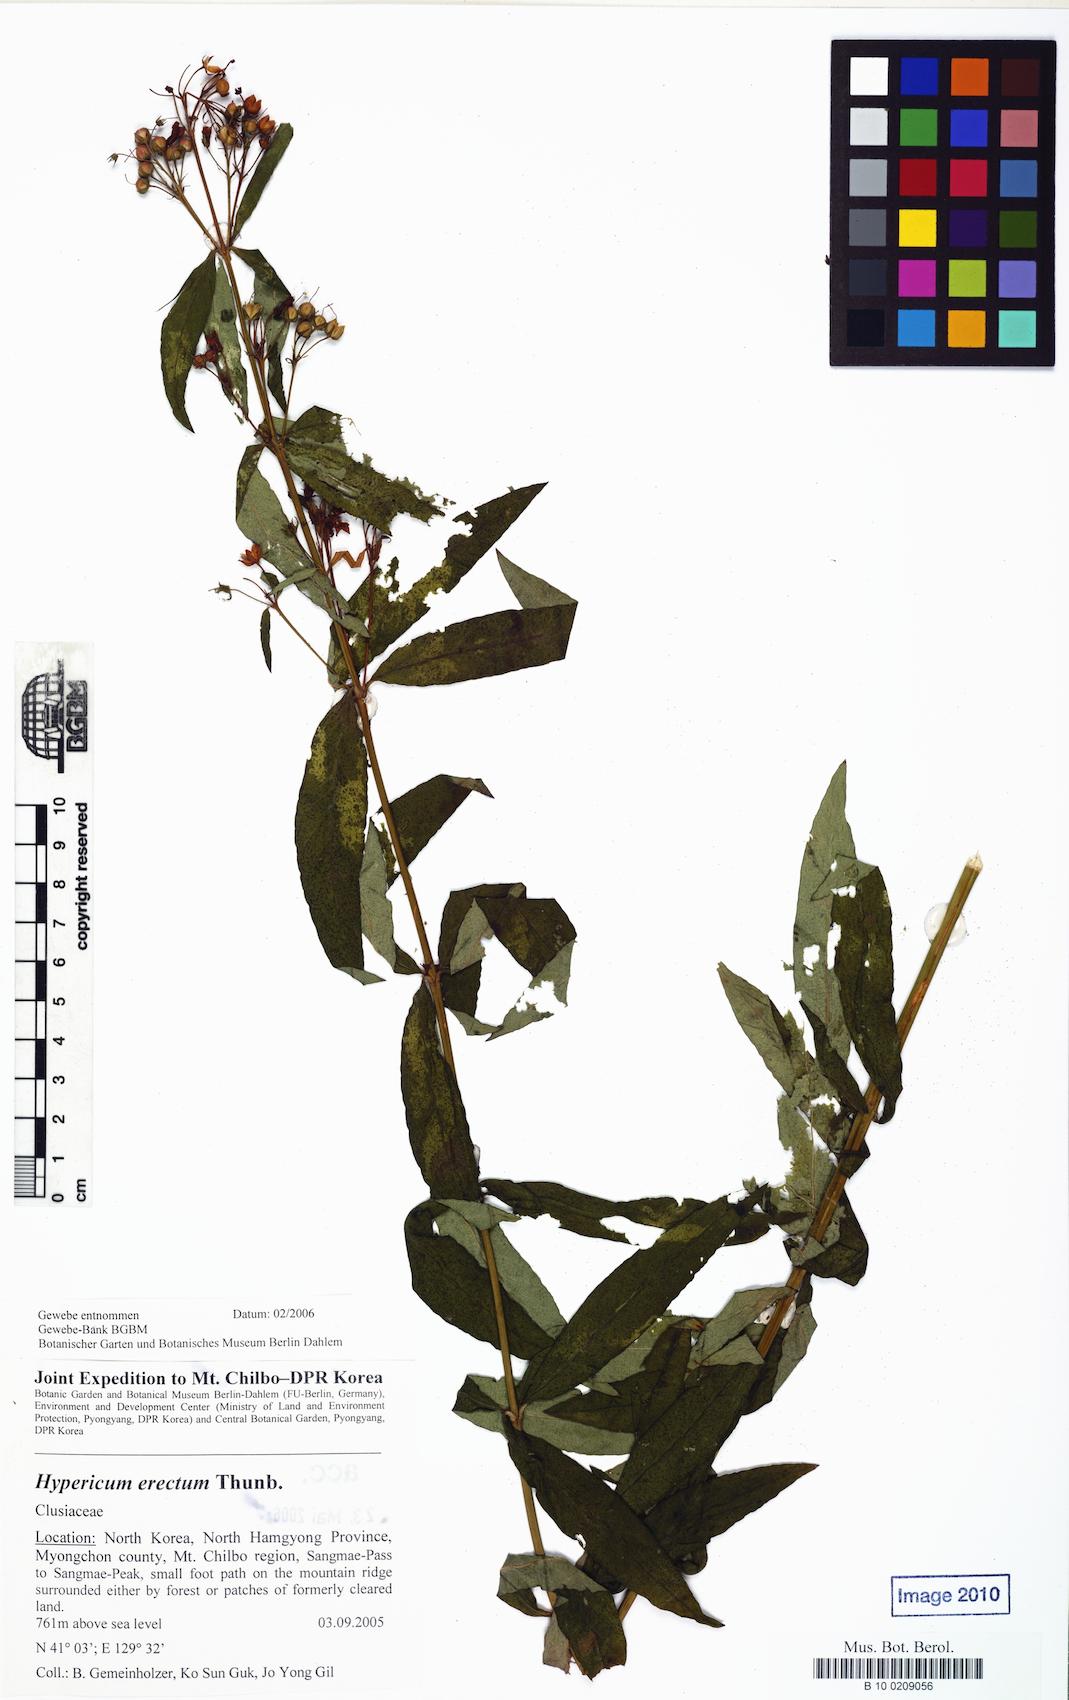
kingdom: Plantae
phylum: Tracheophyta
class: Magnoliopsida
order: Malpighiales
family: Hypericaceae
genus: Hypericum
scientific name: Hypericum erectum
